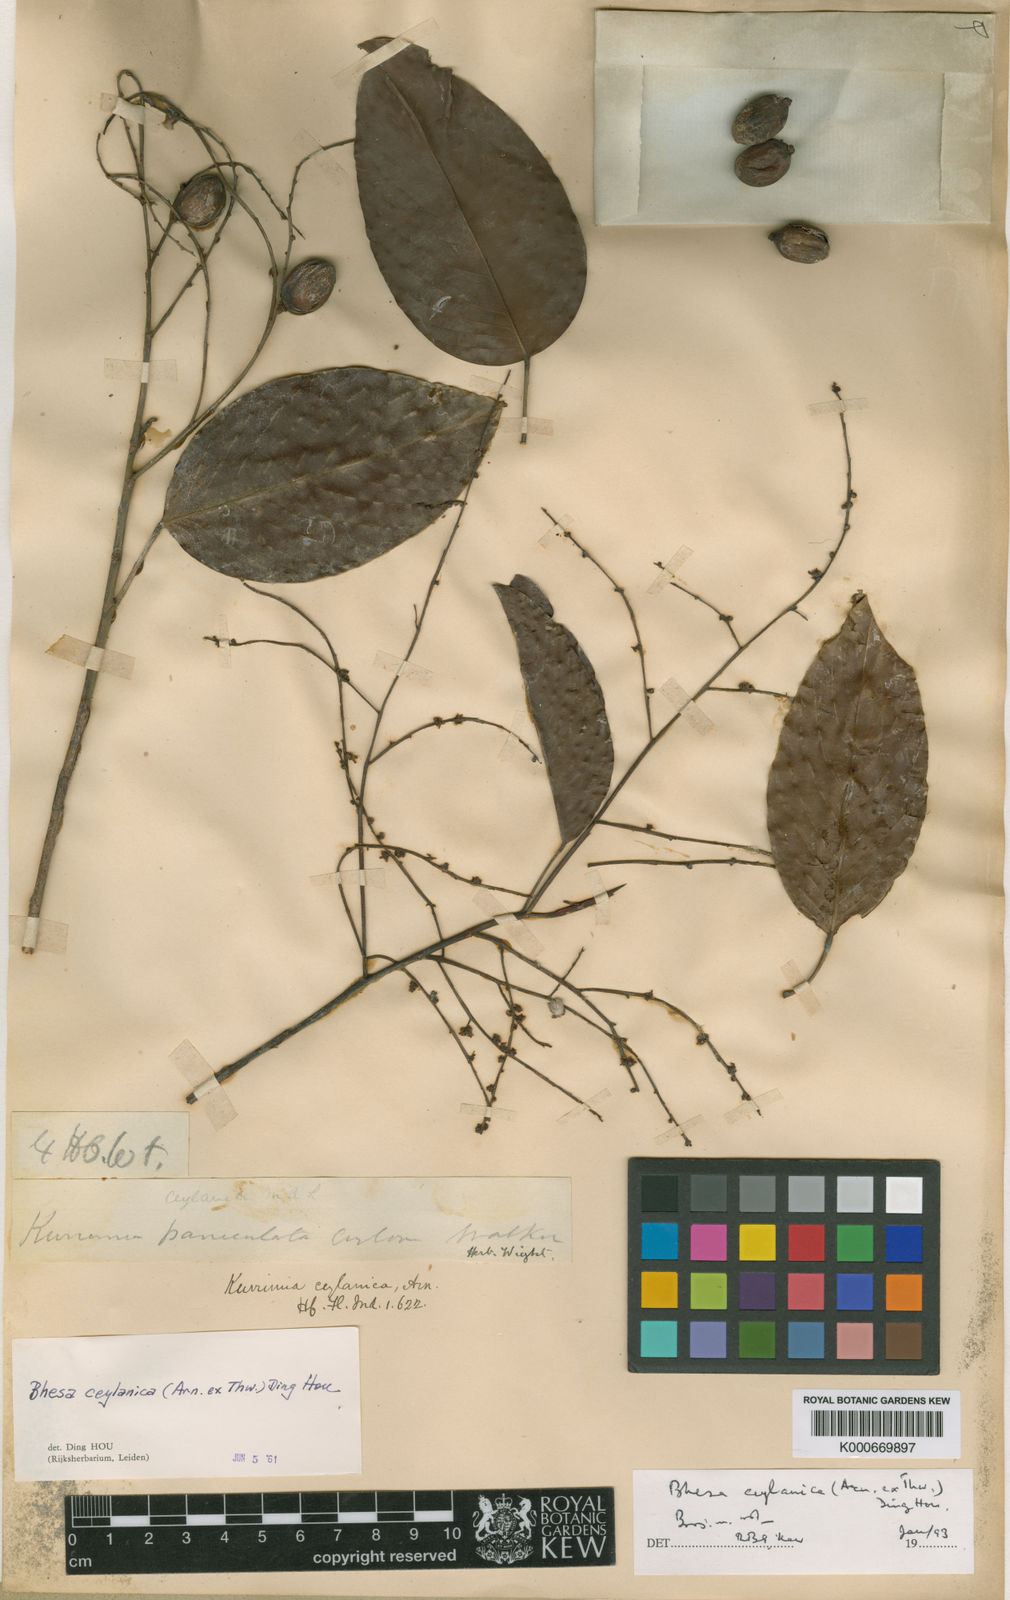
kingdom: Plantae
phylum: Tracheophyta
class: Magnoliopsida
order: Malpighiales
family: Centroplacaceae
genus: Bhesa
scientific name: Bhesa ceylanica
